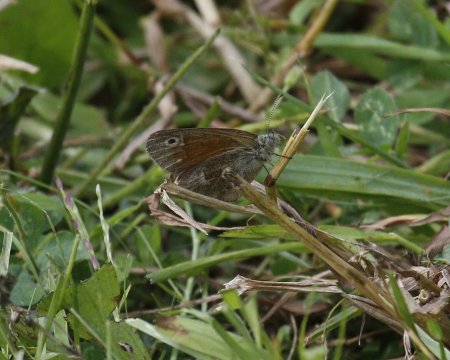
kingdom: Animalia
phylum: Arthropoda
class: Insecta
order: Lepidoptera
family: Nymphalidae
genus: Coenonympha
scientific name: Coenonympha tullia
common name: Large Heath
